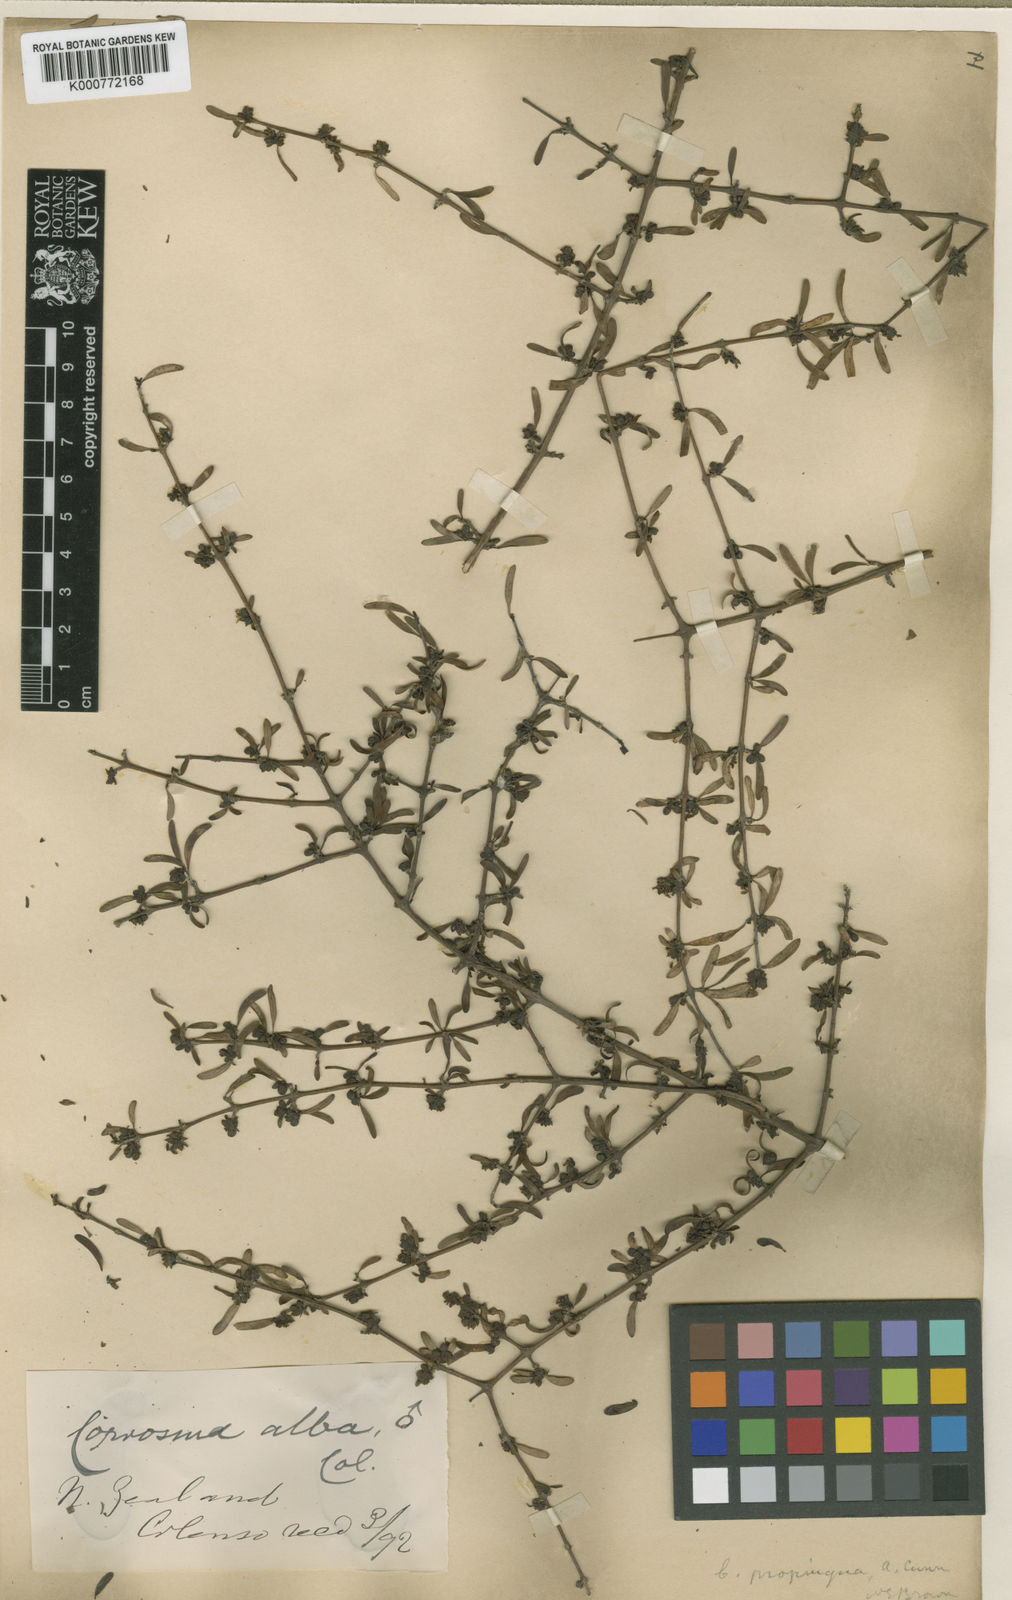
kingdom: Plantae
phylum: Tracheophyta
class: Magnoliopsida
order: Gentianales
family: Rubiaceae
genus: Coprosma
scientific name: Coprosma propinqua
